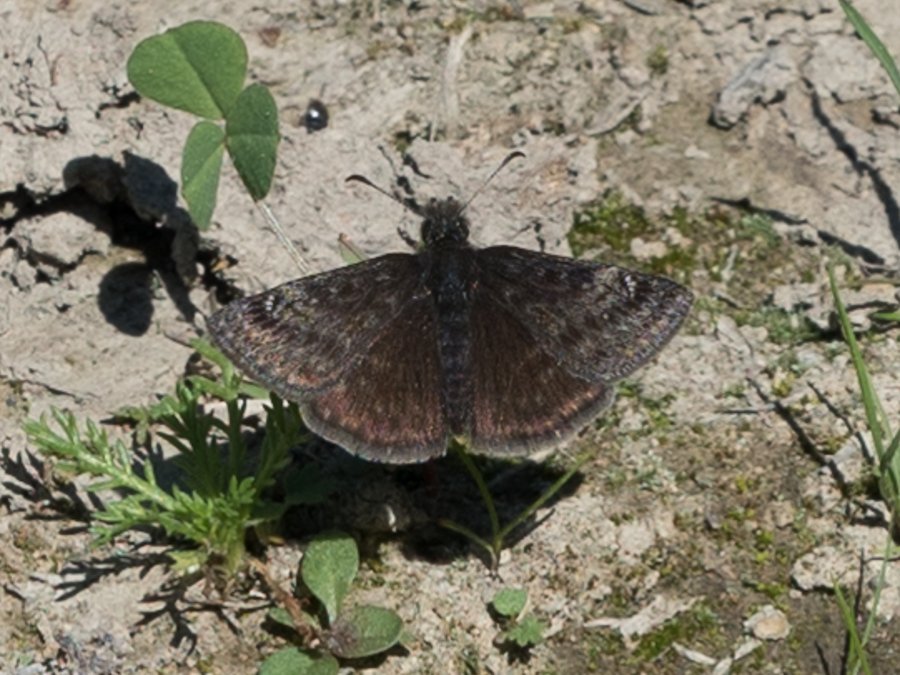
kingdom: Animalia
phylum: Arthropoda
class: Insecta
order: Lepidoptera
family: Hesperiidae
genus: Gesta
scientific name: Gesta
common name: Persius Duskywing
